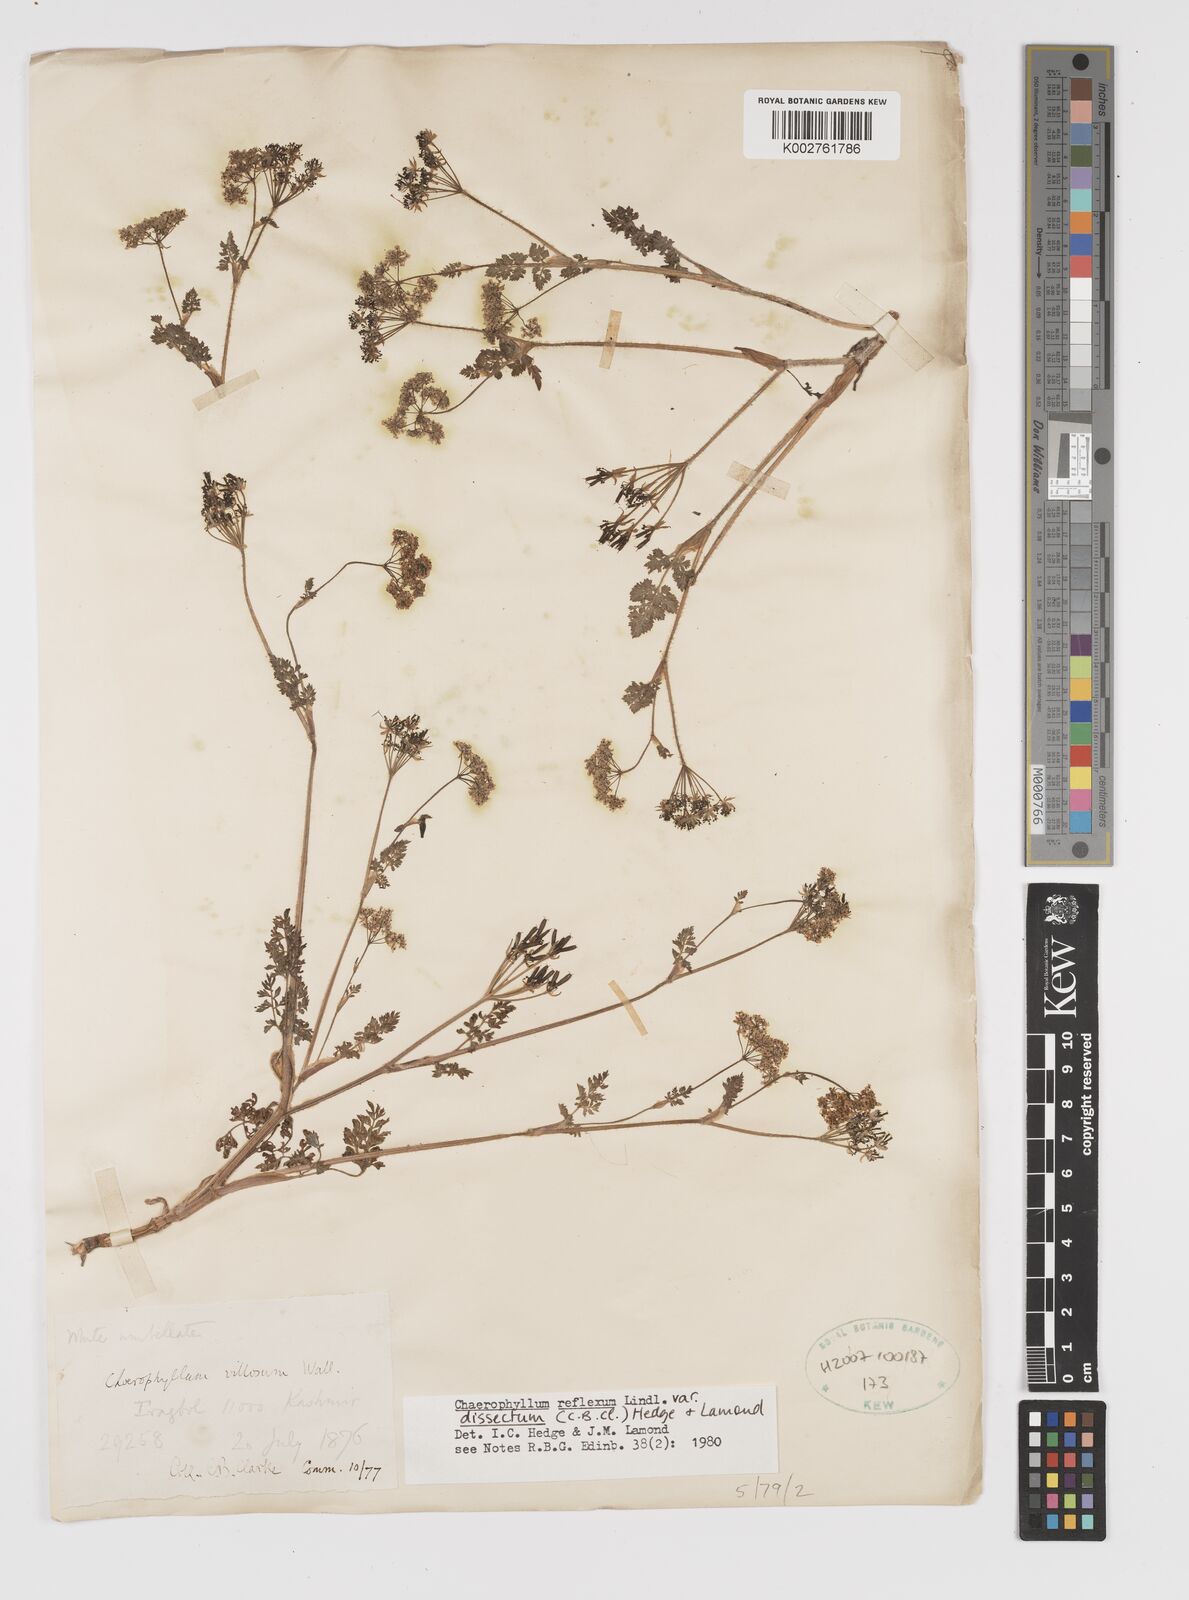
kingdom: Plantae
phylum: Tracheophyta
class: Magnoliopsida
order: Apiales
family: Apiaceae
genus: Chaerophyllum
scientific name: Chaerophyllum reflexum
